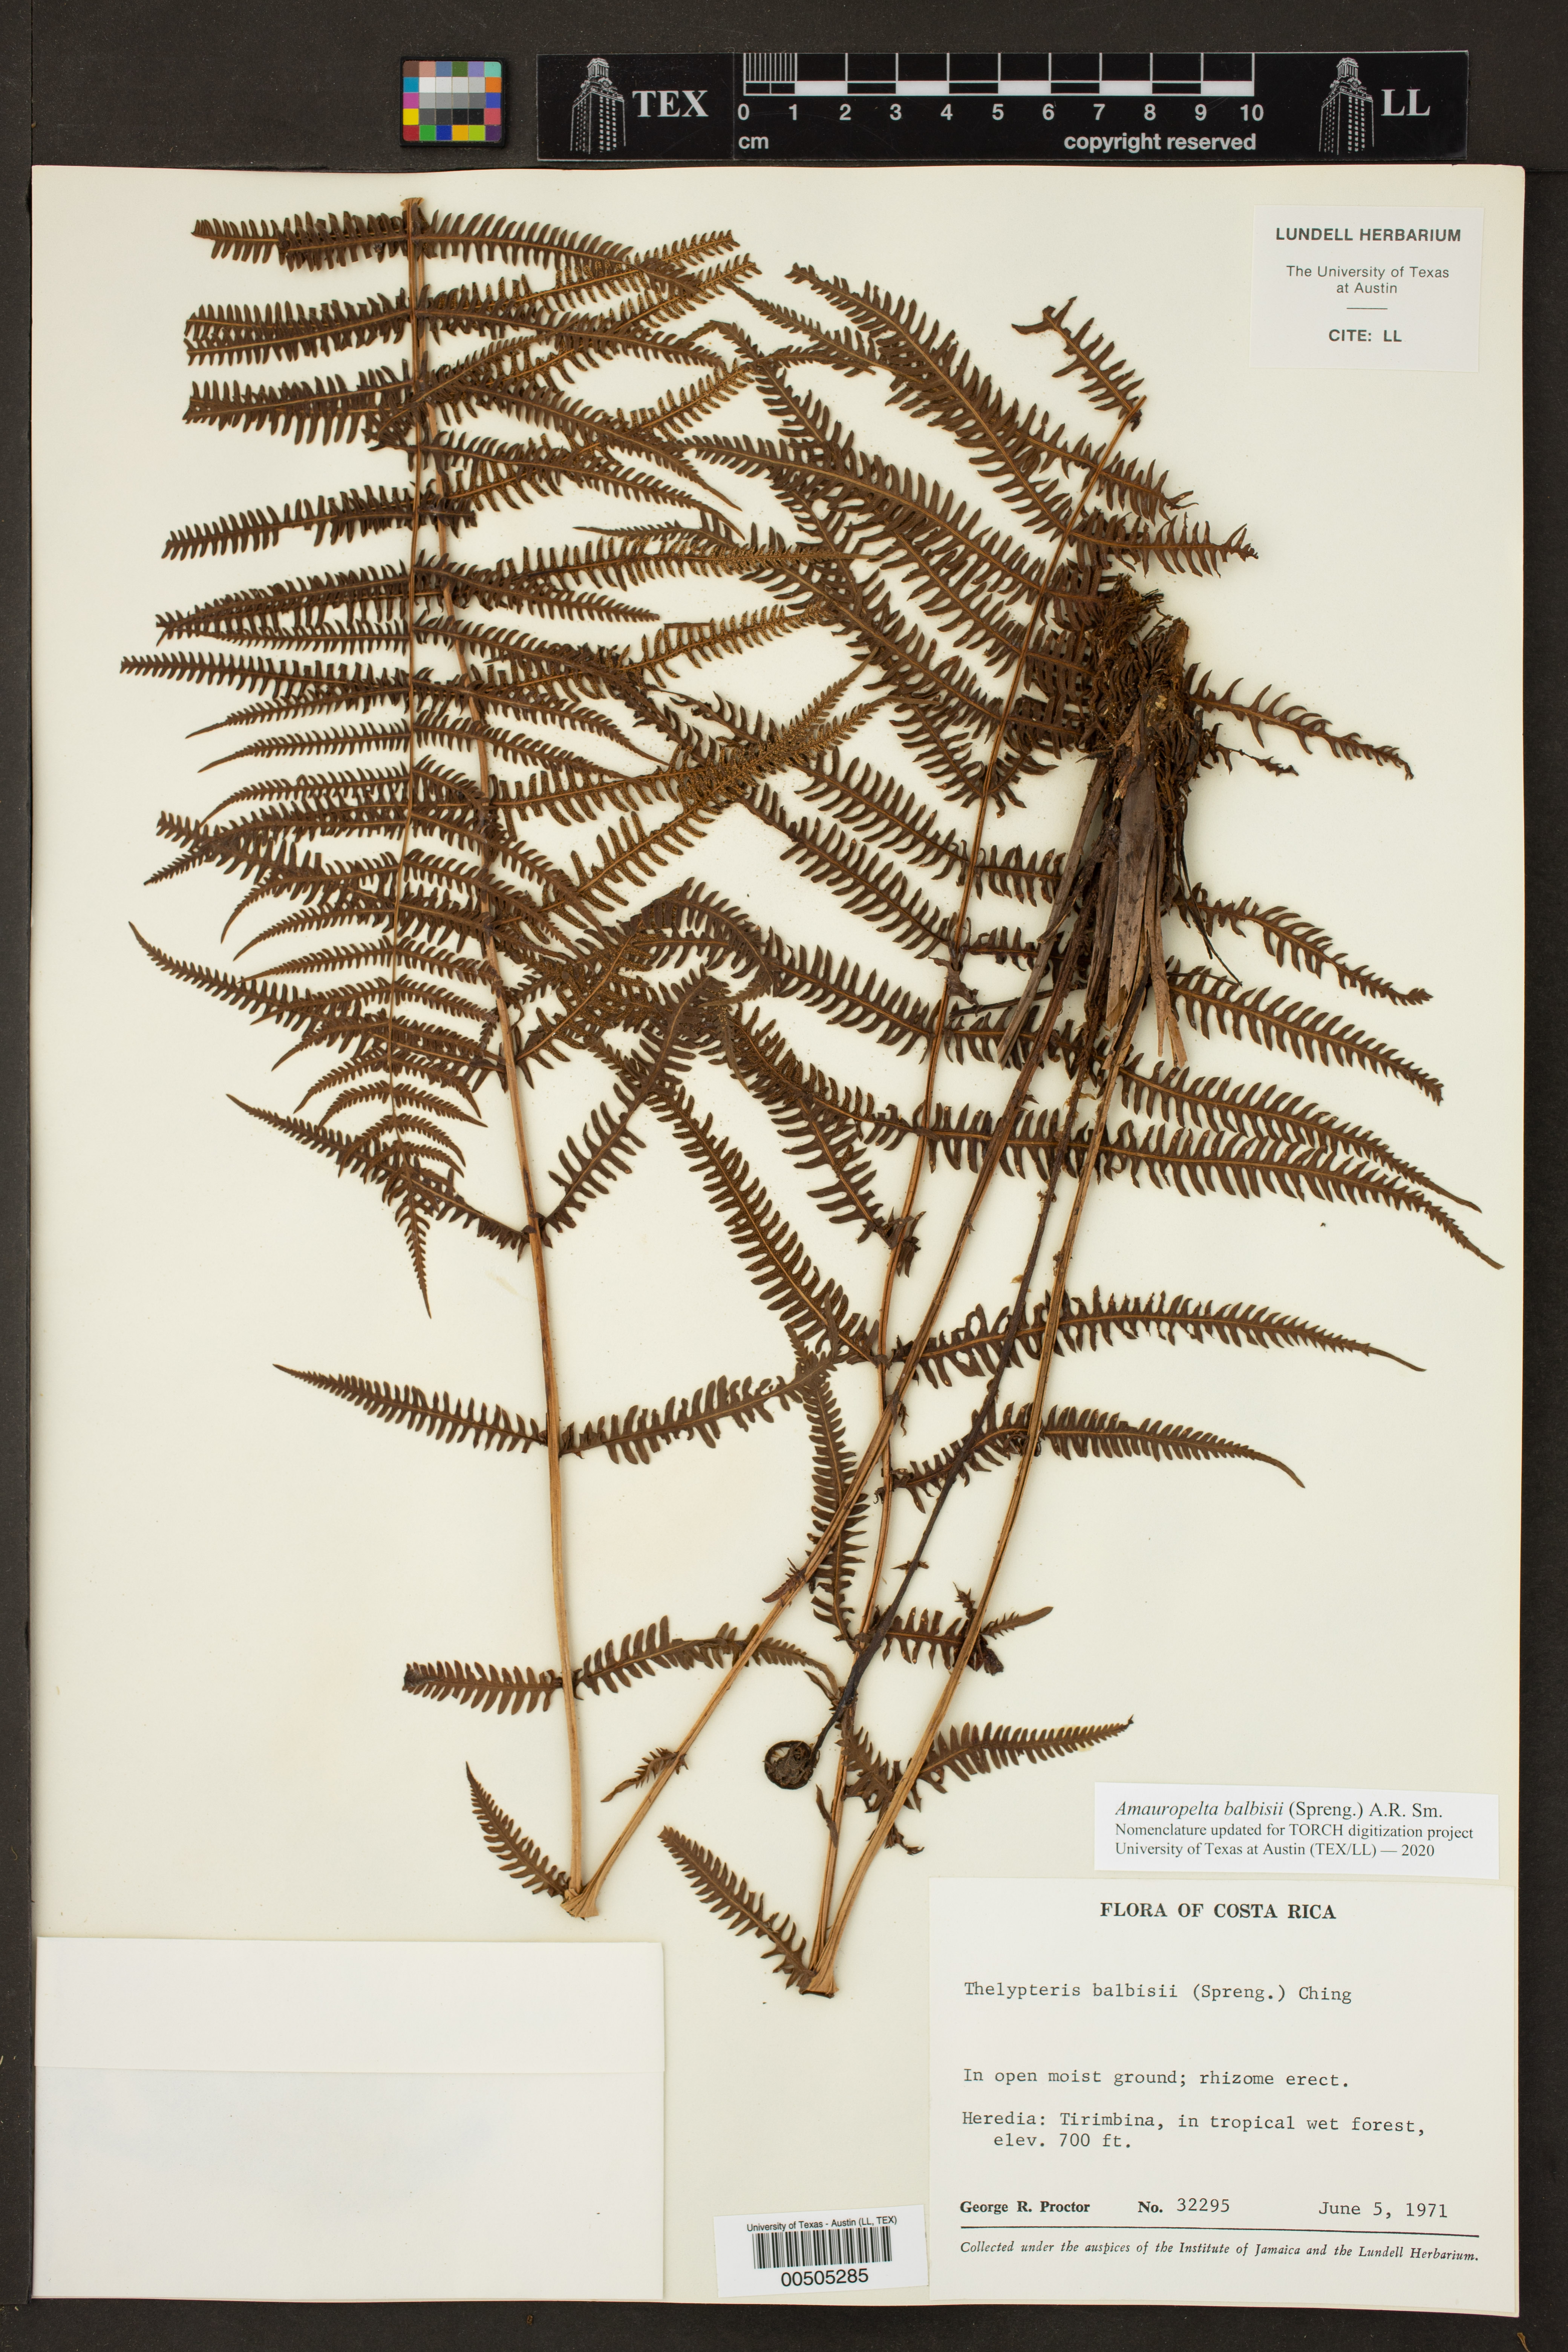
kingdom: Plantae
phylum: Tracheophyta
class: Polypodiopsida
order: Polypodiales
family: Thelypteridaceae
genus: Amauropelta
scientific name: Amauropelta balbisii
